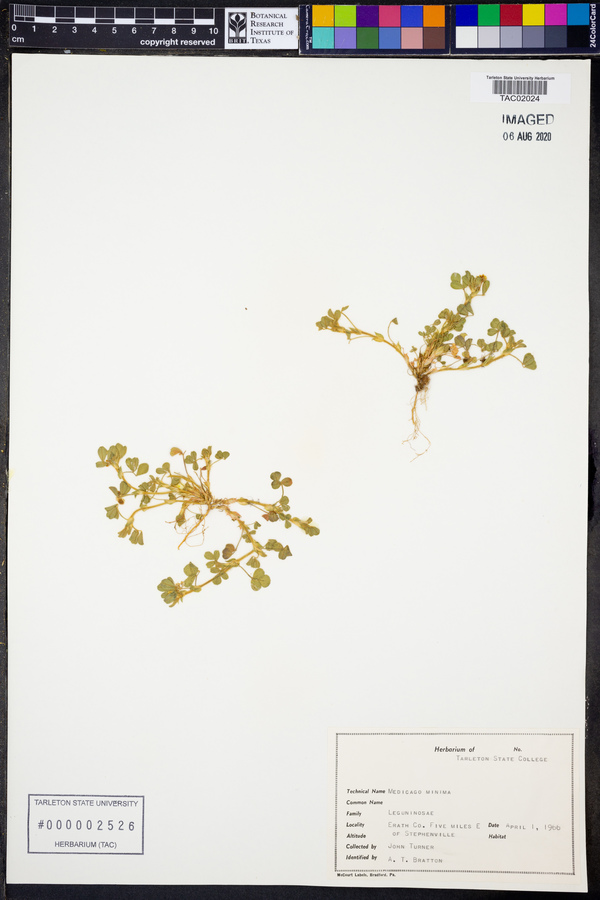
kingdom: Plantae
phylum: Tracheophyta
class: Magnoliopsida
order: Fabales
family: Fabaceae
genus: Medicago
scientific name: Medicago minima
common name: Little bur-clover
